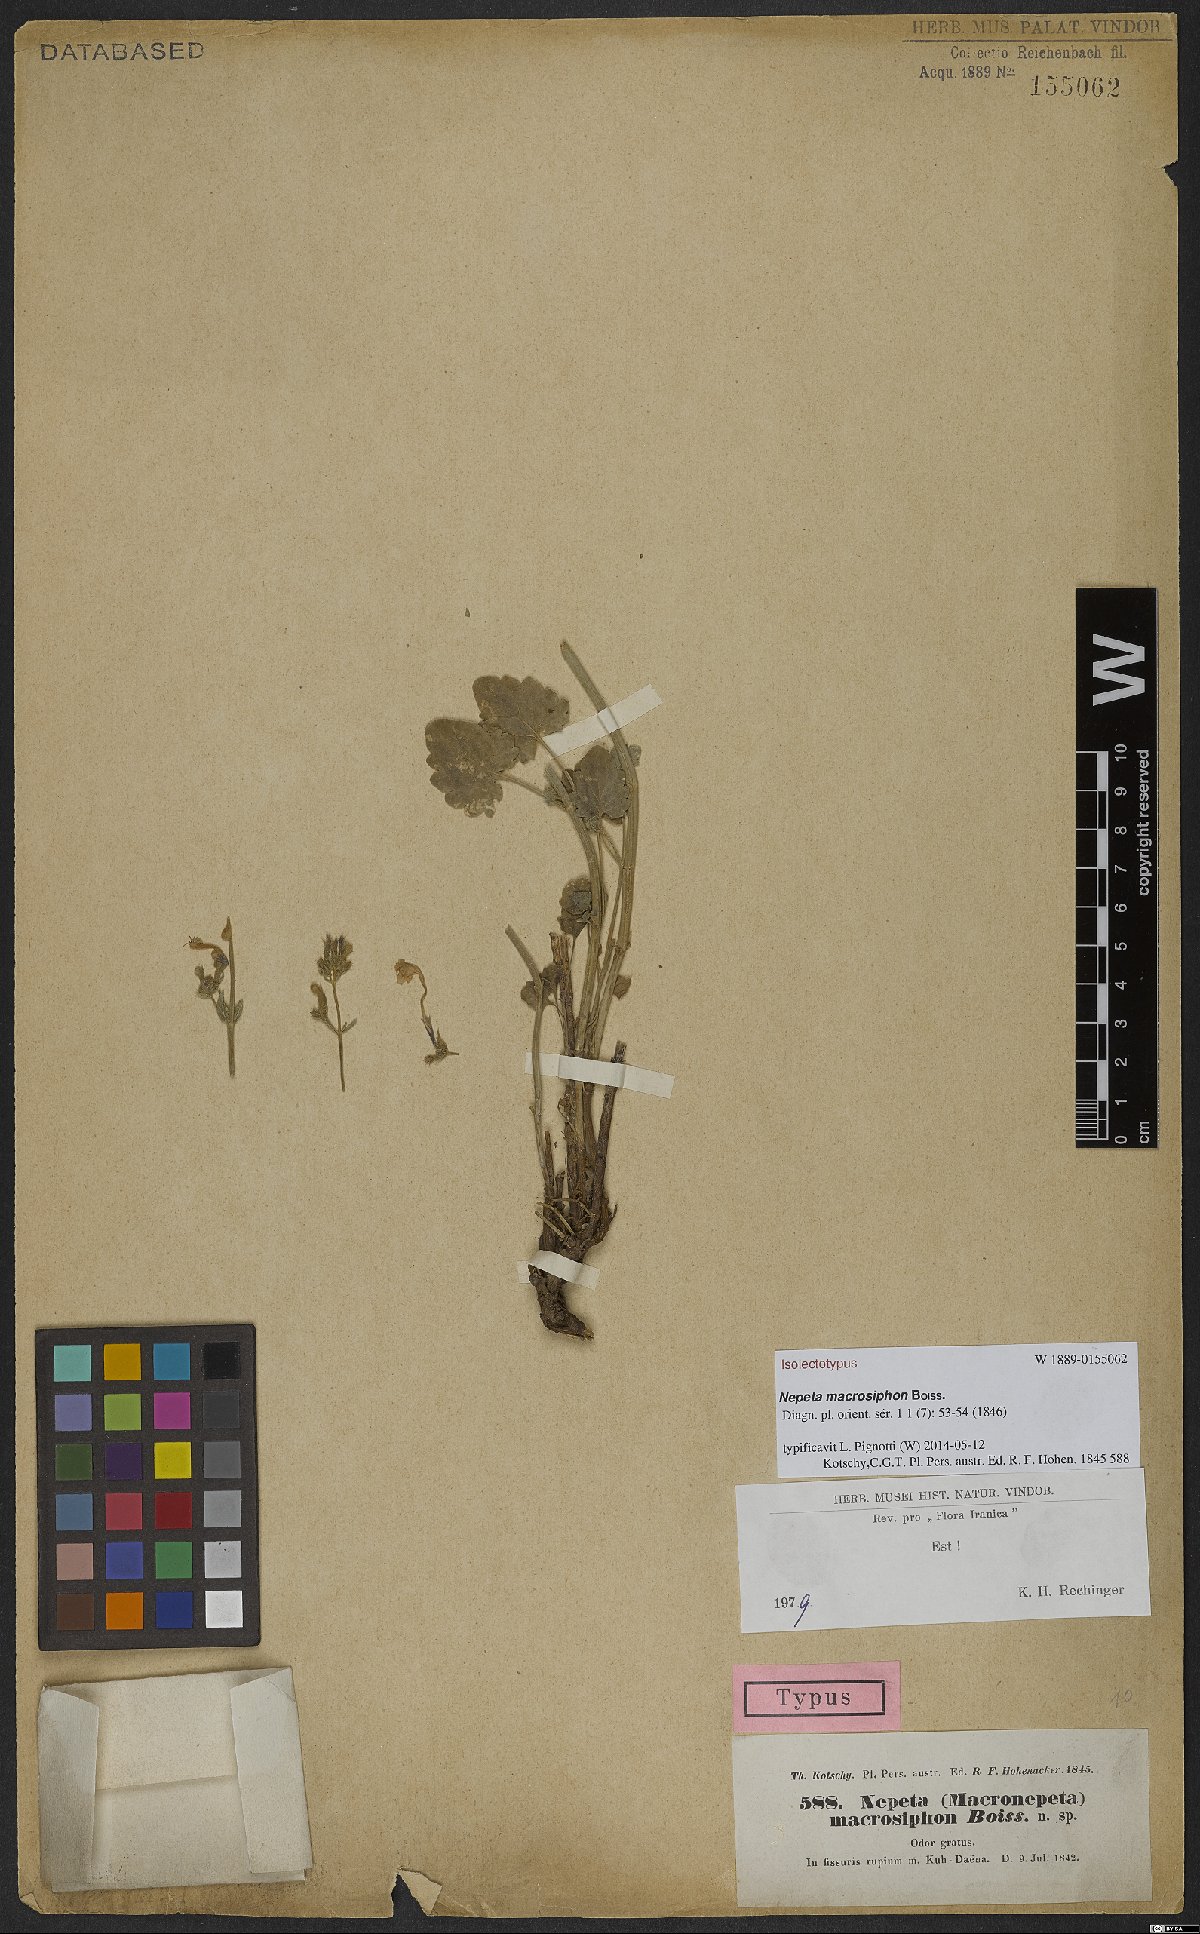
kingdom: Plantae
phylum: Tracheophyta
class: Magnoliopsida
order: Lamiales
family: Lamiaceae
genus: Nepeta
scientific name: Nepeta macrosiphon
